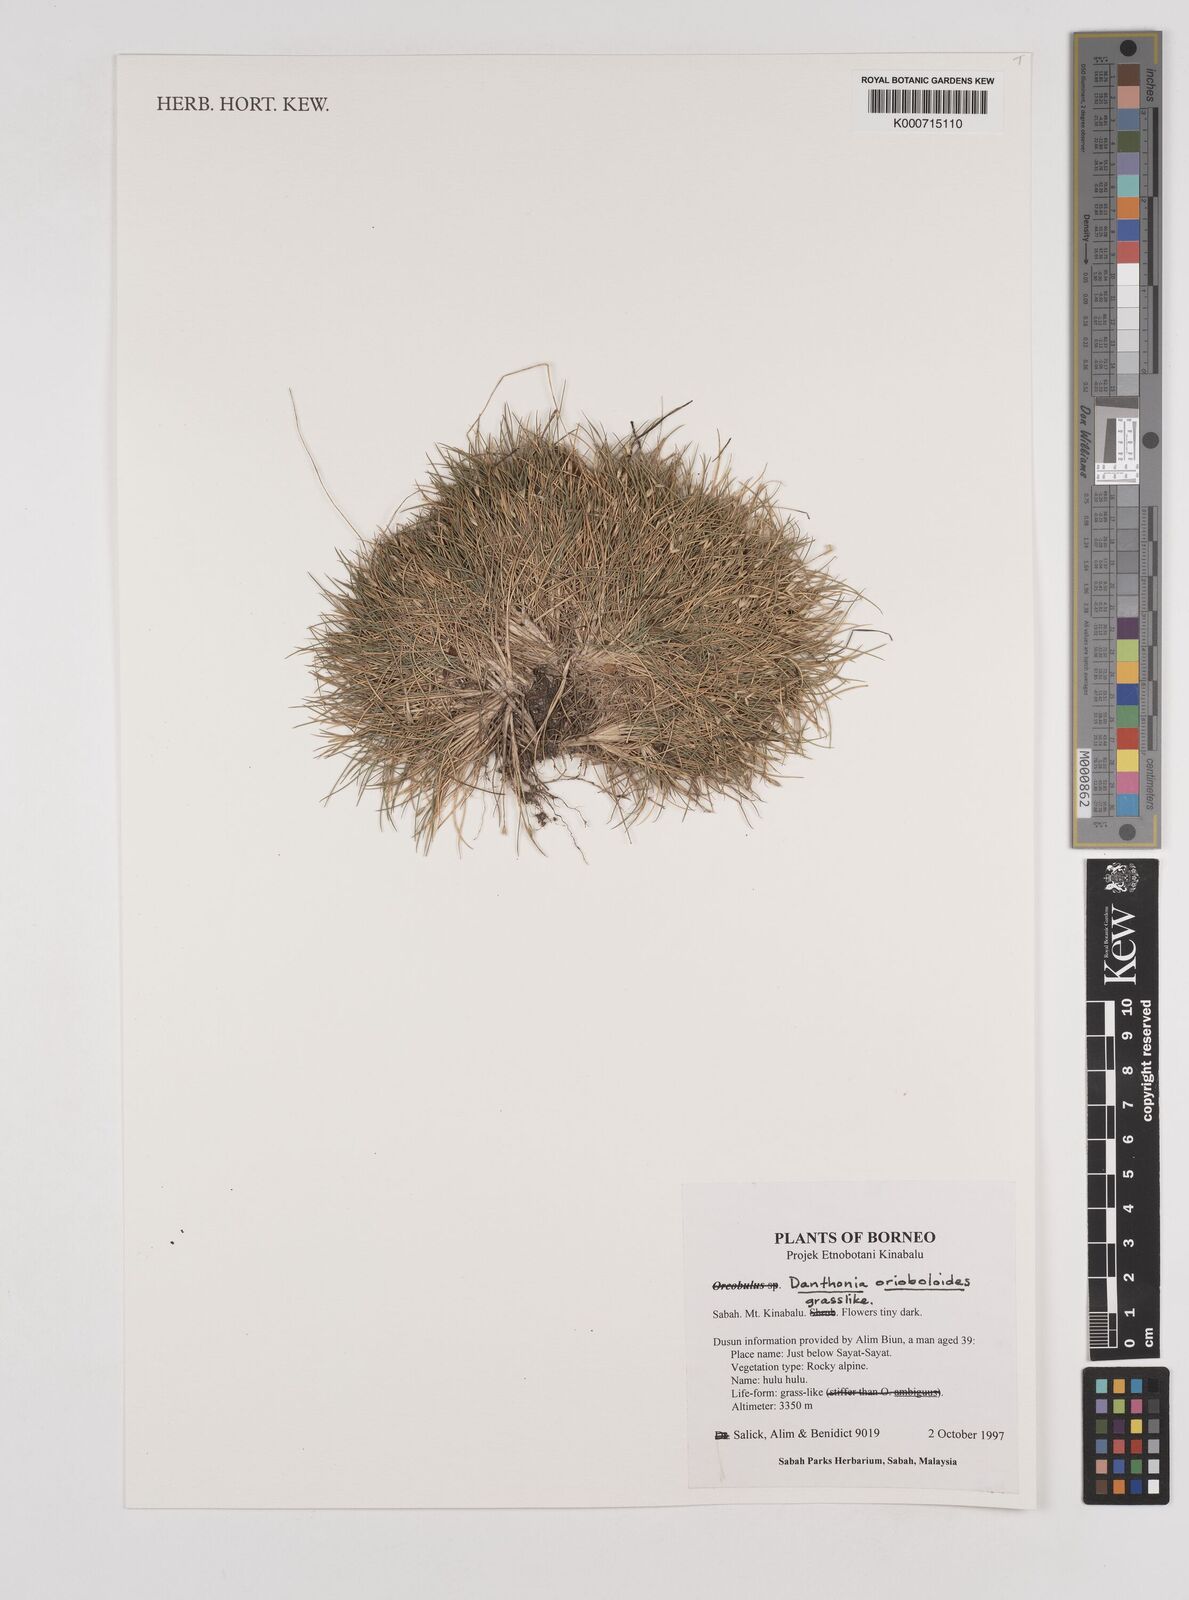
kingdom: Plantae
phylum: Tracheophyta
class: Liliopsida
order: Poales
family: Poaceae
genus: Rytidosperma
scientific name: Rytidosperma oreoboloides
